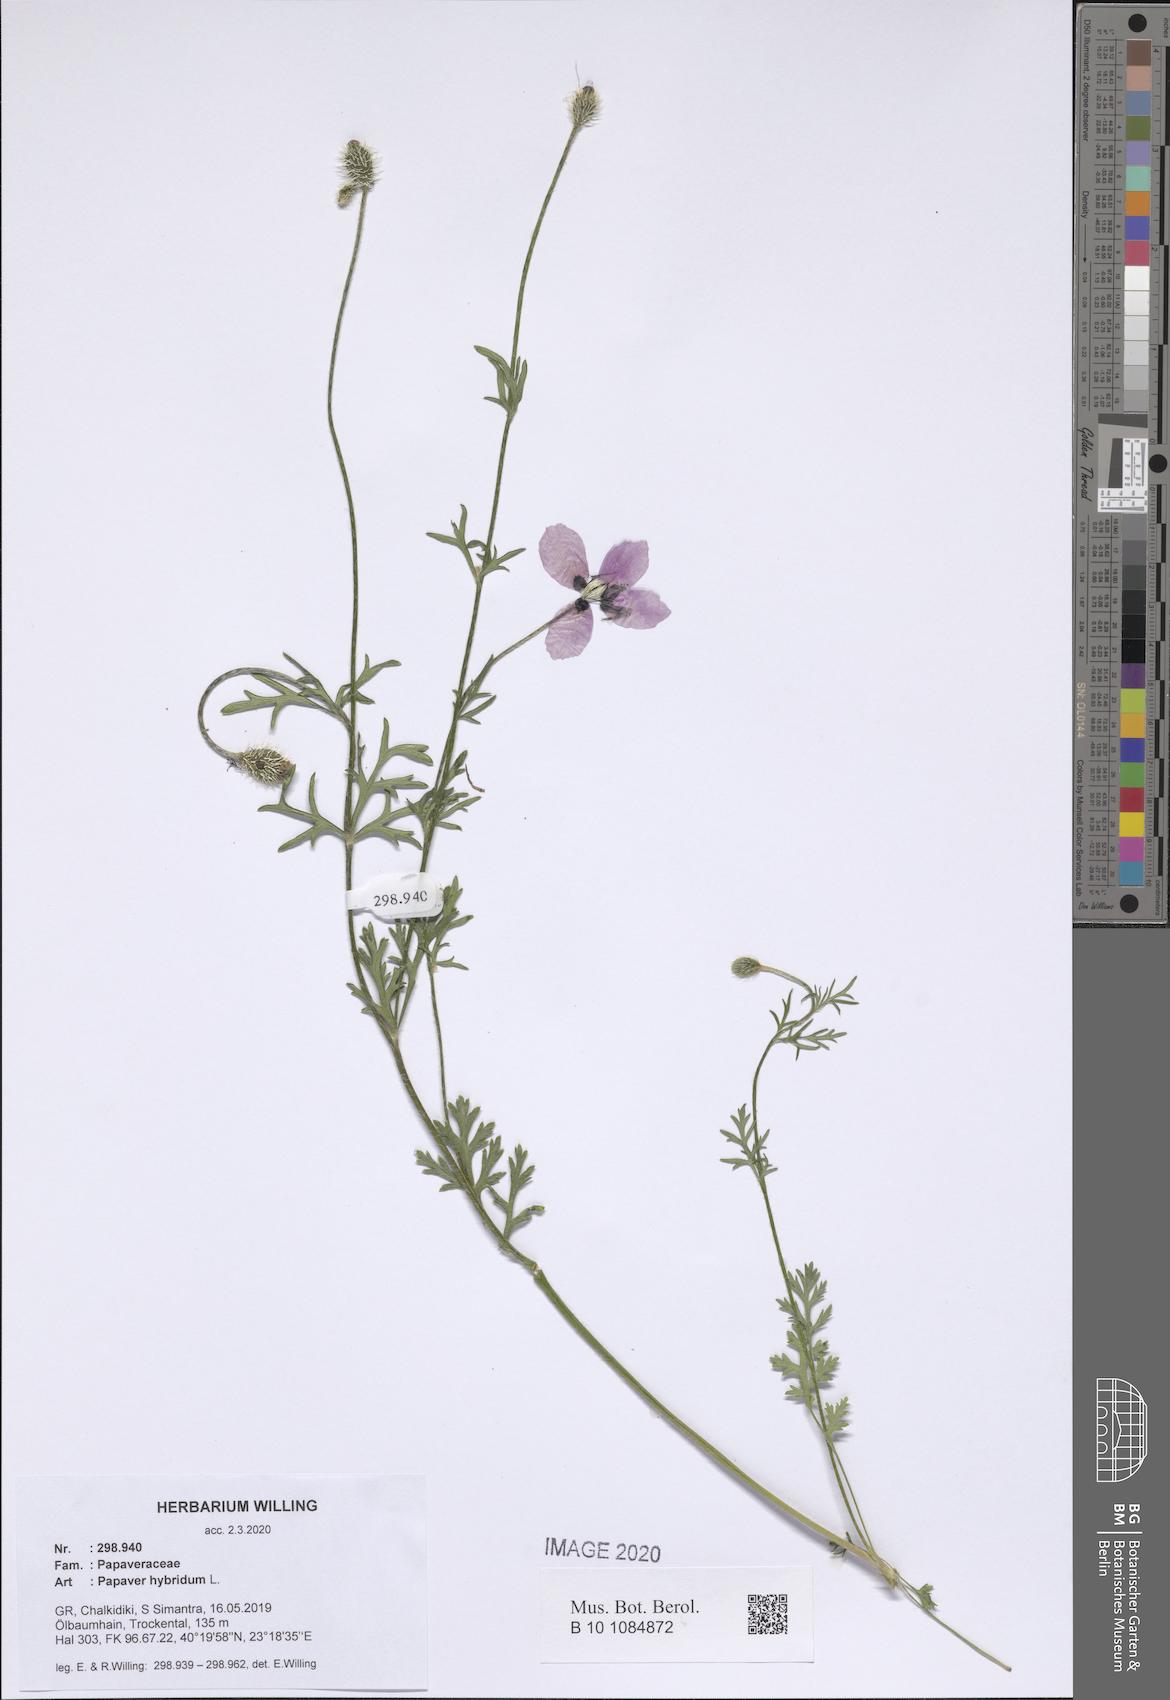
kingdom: Plantae
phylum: Tracheophyta
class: Magnoliopsida
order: Ranunculales
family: Papaveraceae
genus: Roemeria
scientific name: Roemeria hispida
